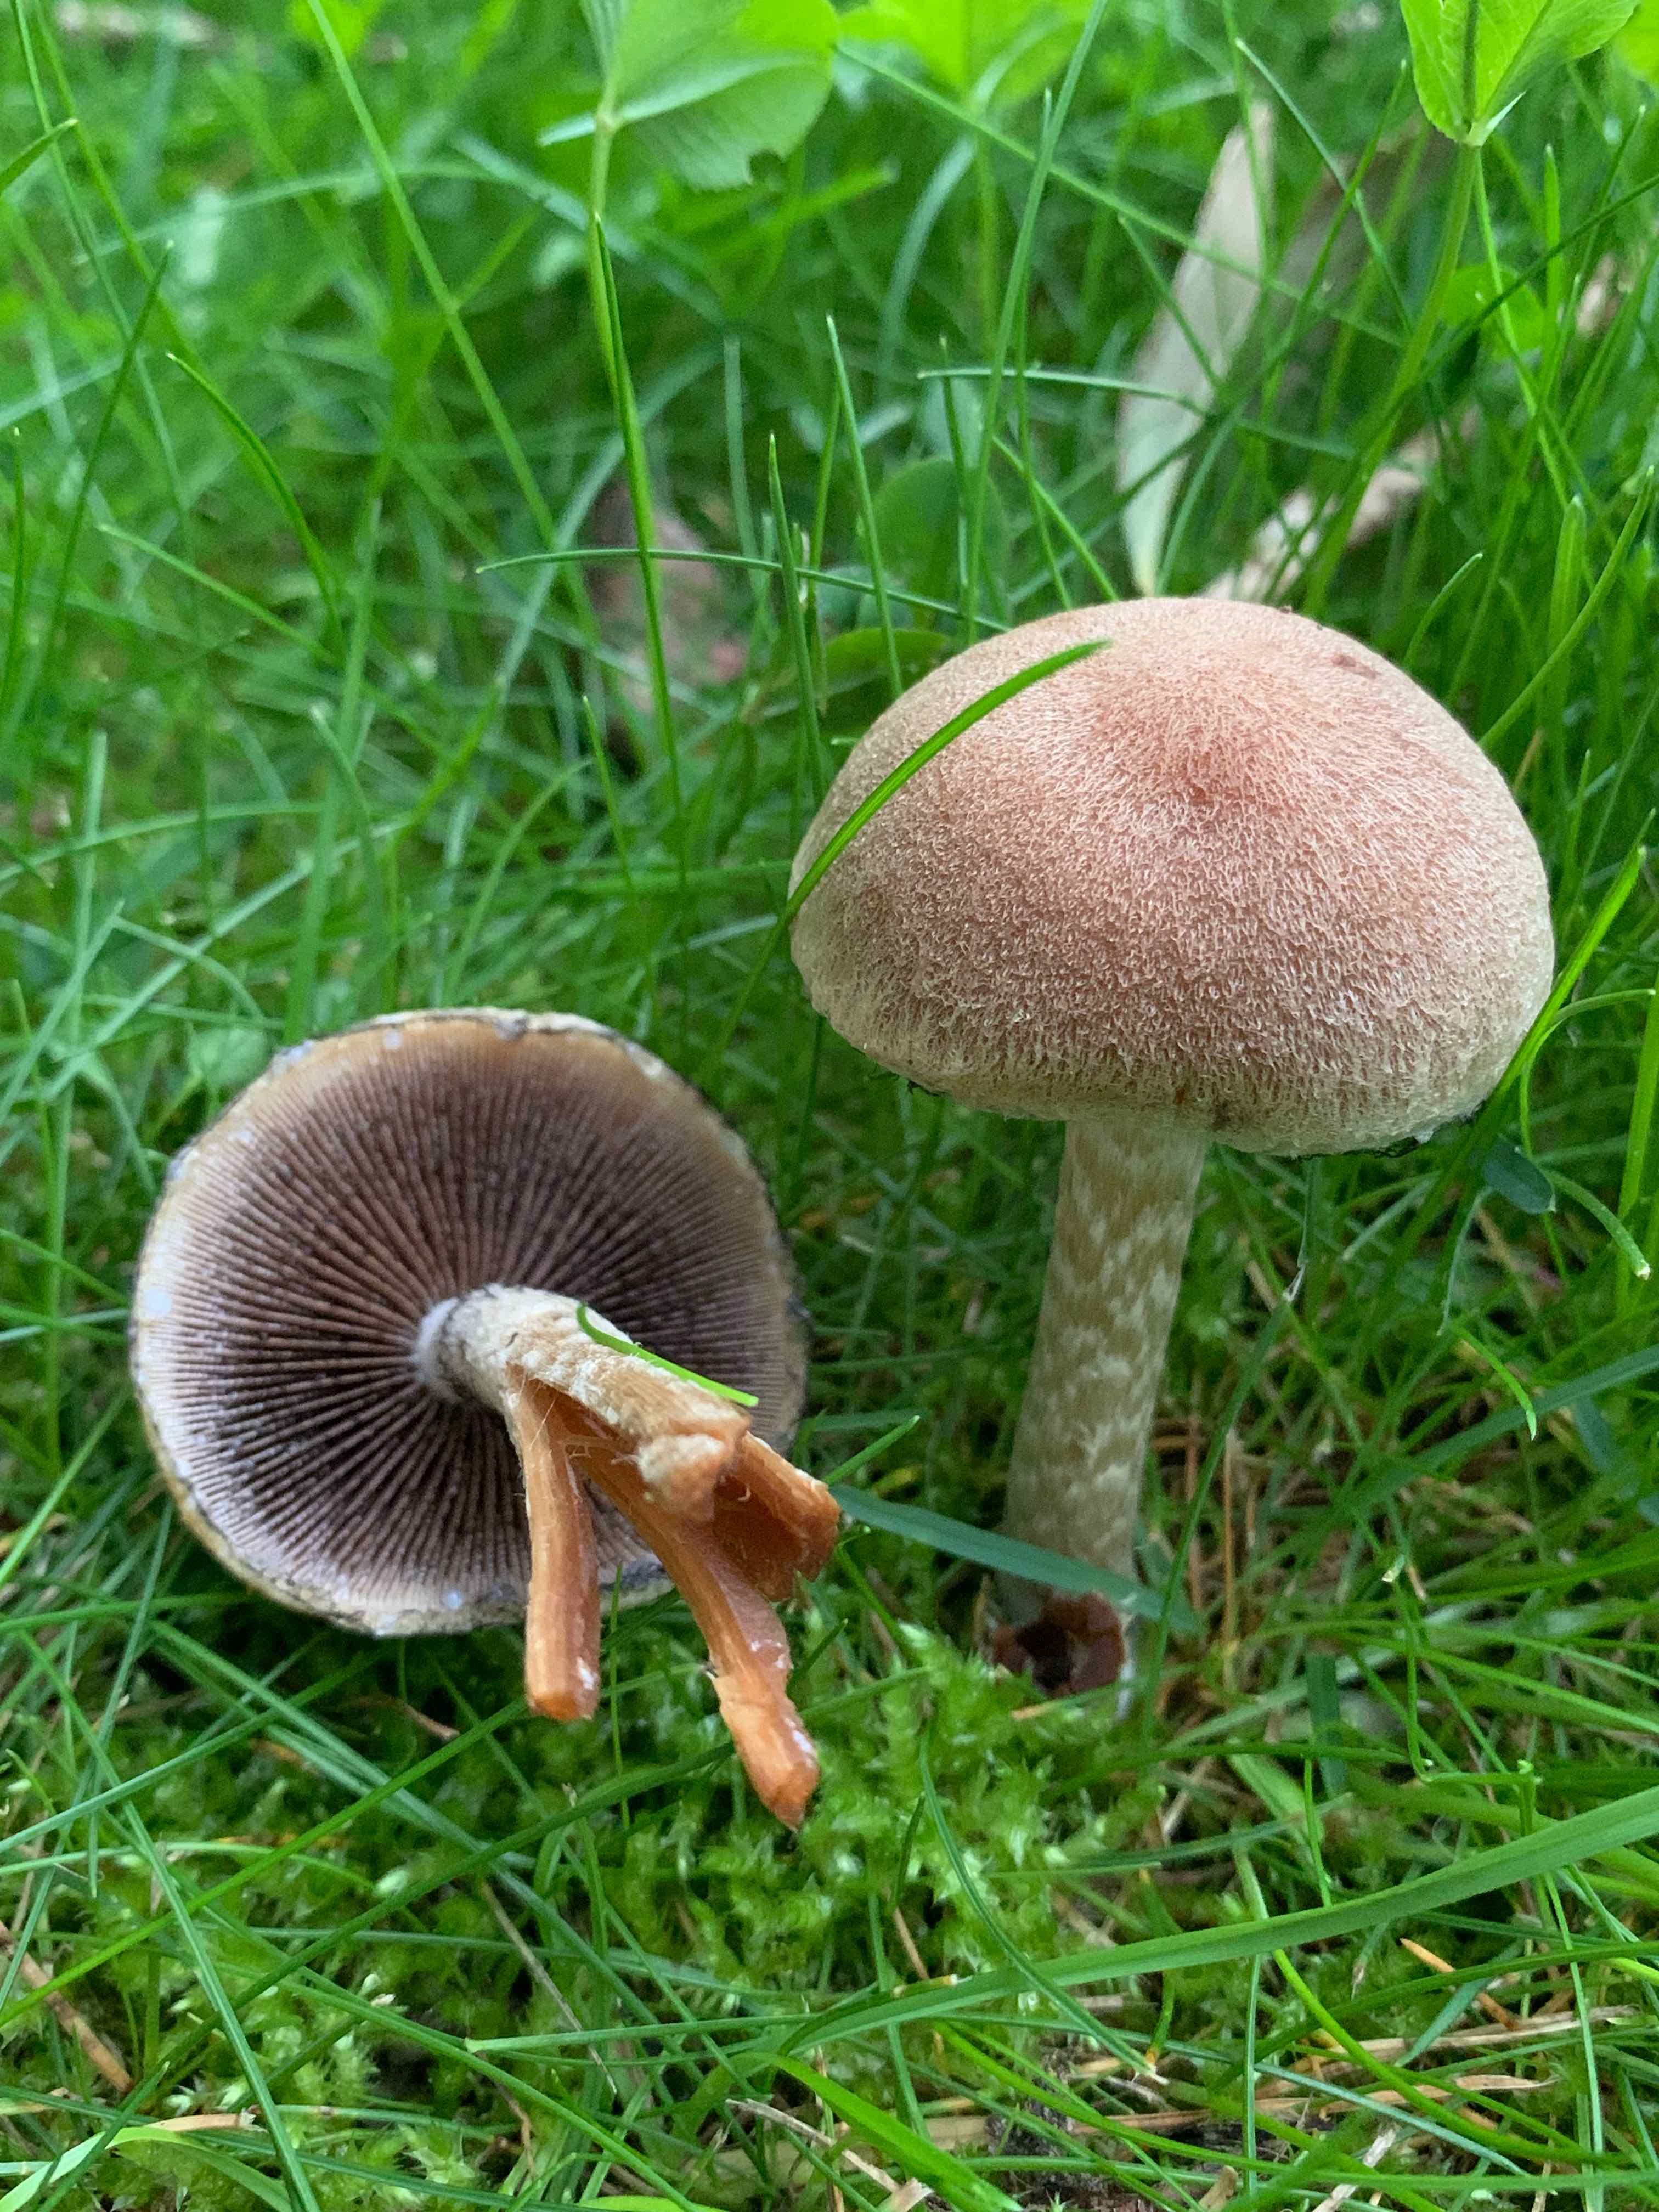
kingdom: Fungi
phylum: Basidiomycota
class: Agaricomycetes
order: Agaricales
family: Psathyrellaceae
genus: Lacrymaria
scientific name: Lacrymaria lacrymabunda
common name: grædende mørkhat
